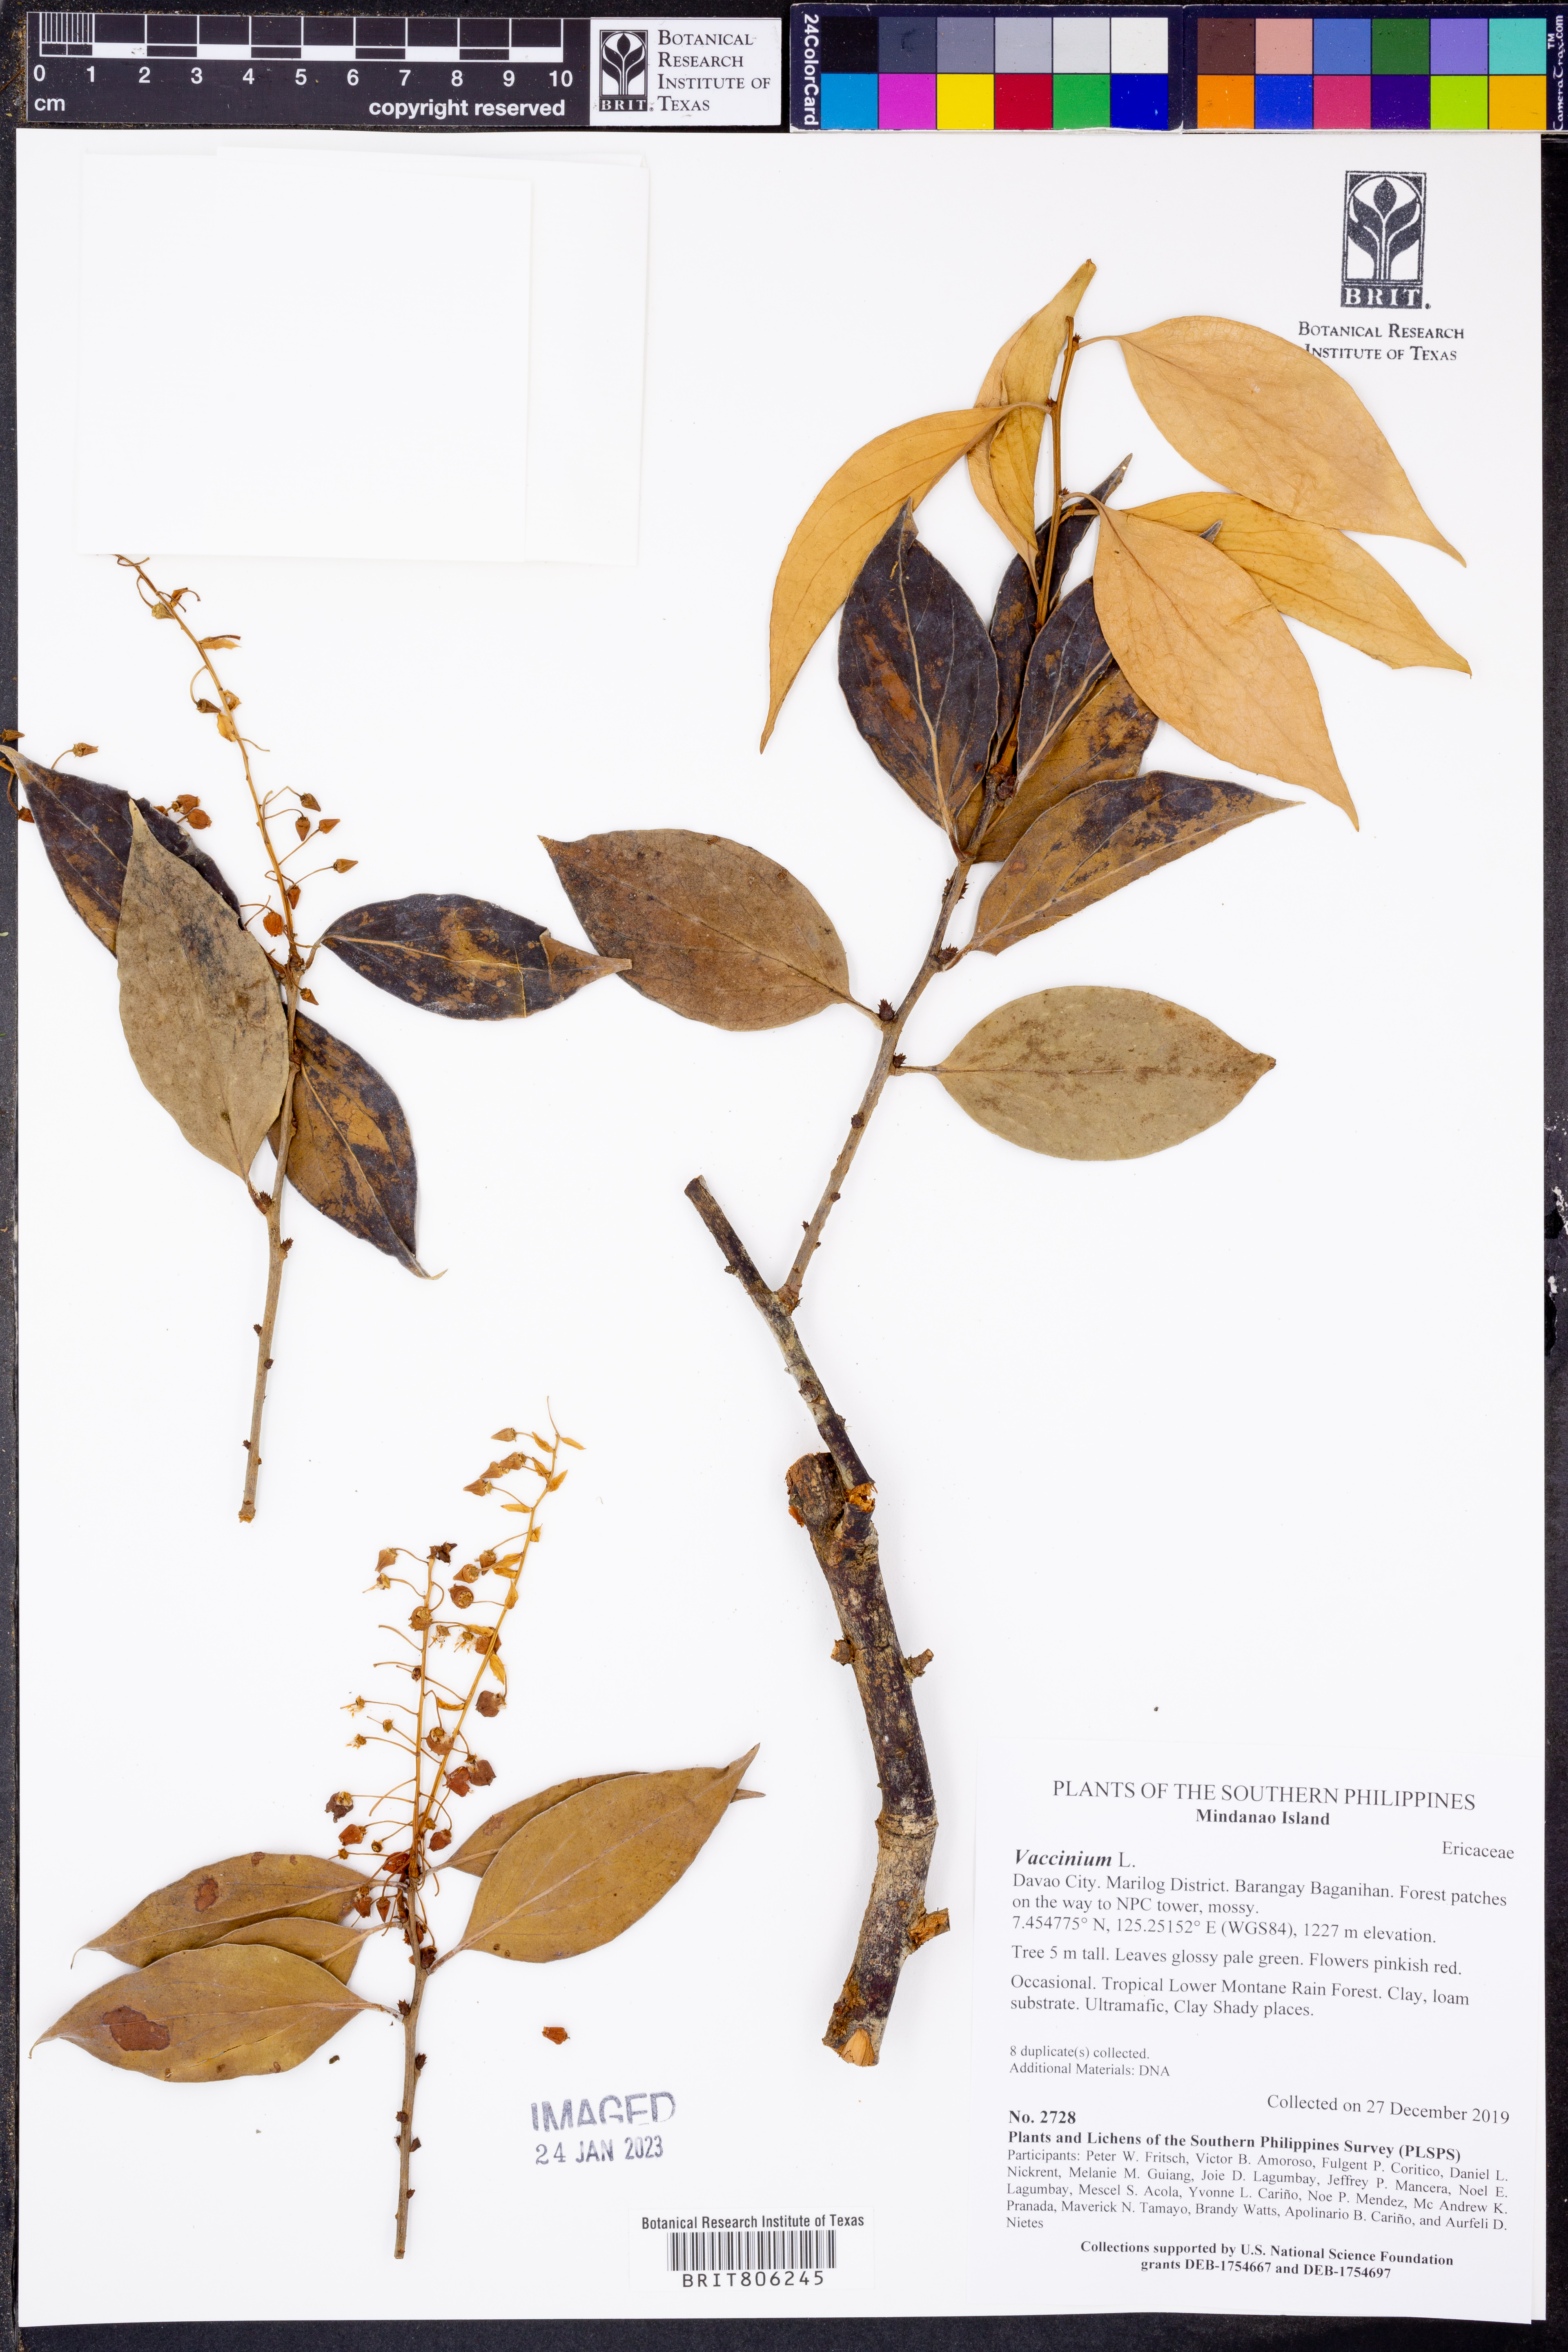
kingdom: Plantae
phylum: Tracheophyta
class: Magnoliopsida
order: Ericales
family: Ericaceae
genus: Vaccinium
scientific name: Vaccinium
